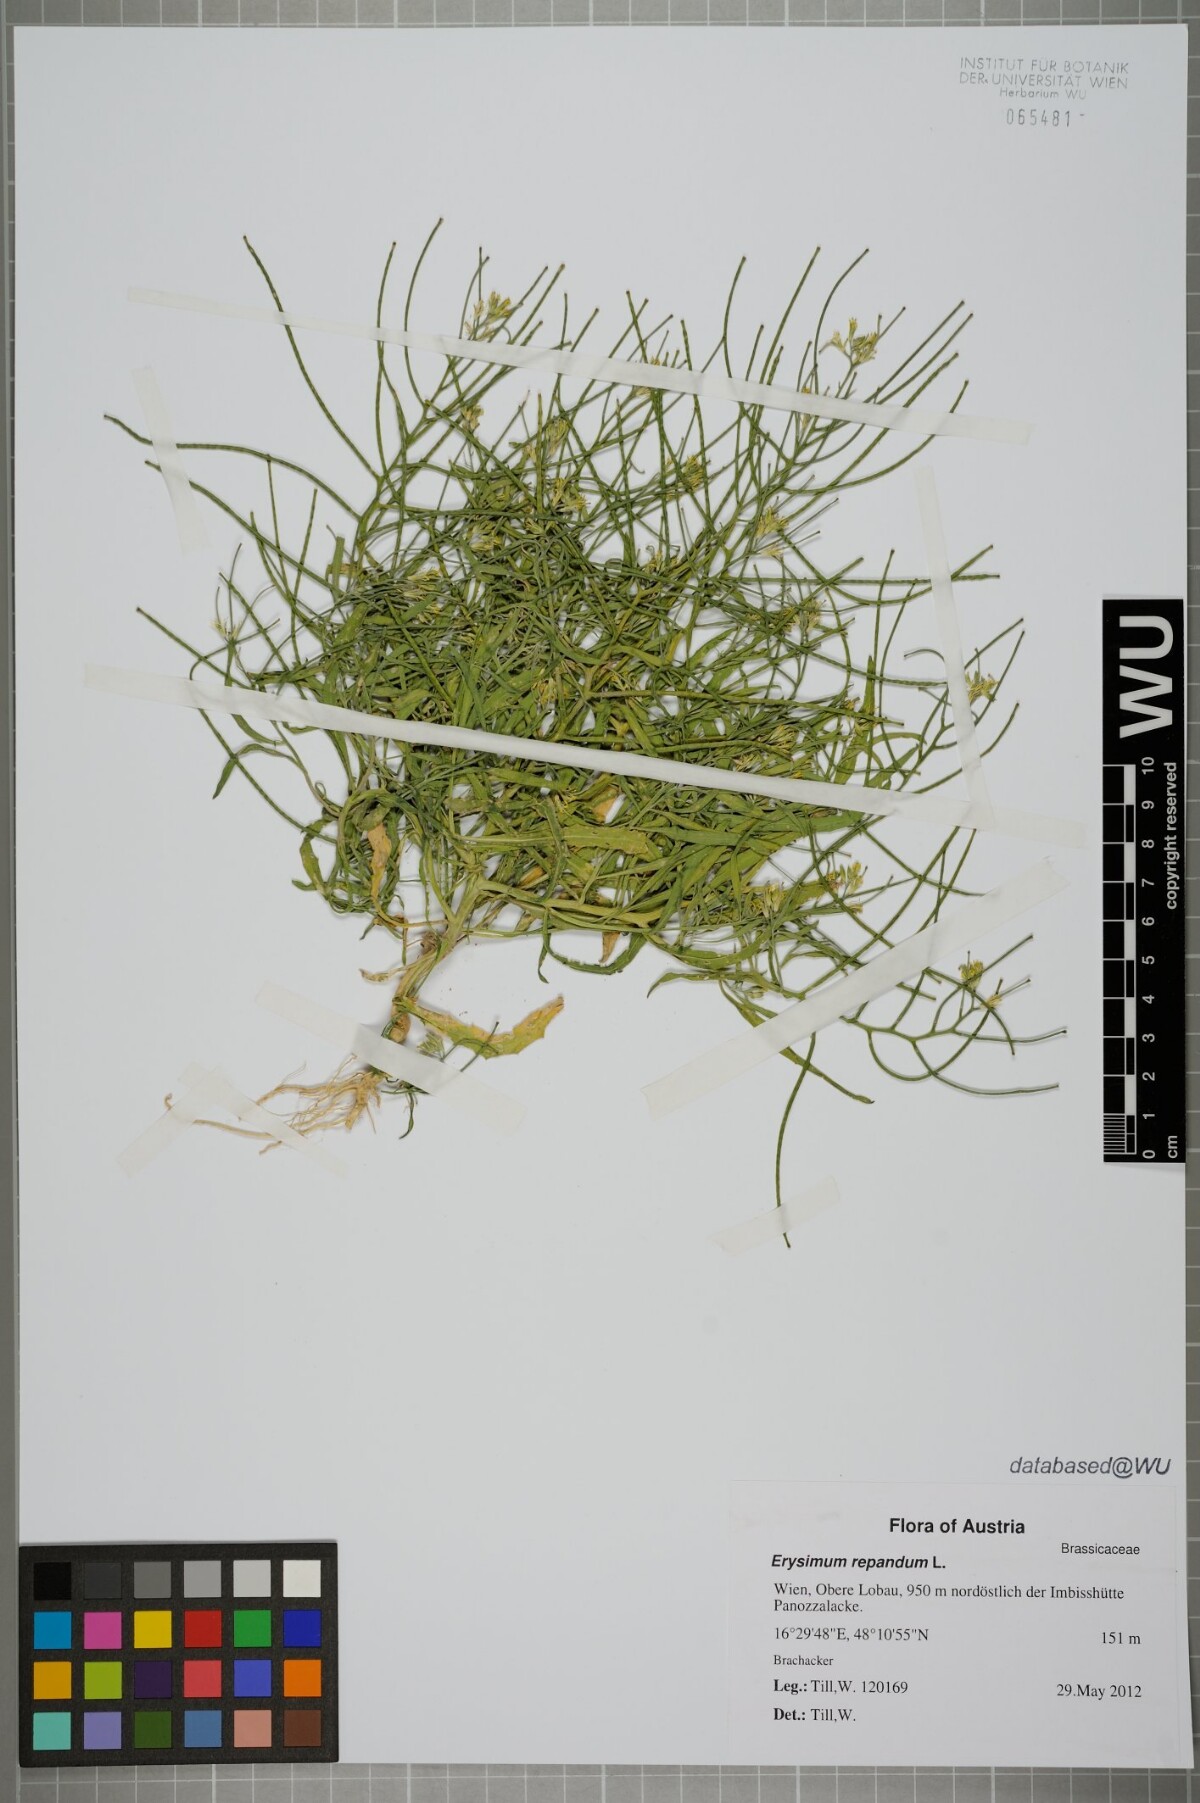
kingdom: Plantae
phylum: Tracheophyta
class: Magnoliopsida
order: Brassicales
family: Brassicaceae
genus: Erysimum
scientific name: Erysimum repandum
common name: Spreading wallflower
